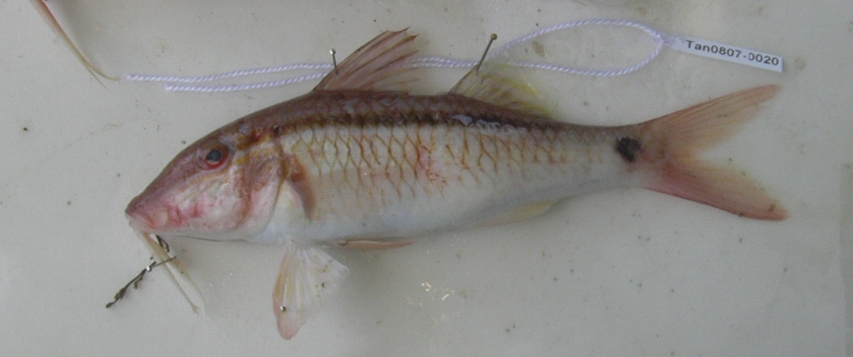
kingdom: Animalia
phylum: Chordata
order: Perciformes
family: Mullidae
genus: Parupeneus
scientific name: Parupeneus barberinus
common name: Dash-and-dot goatfish
